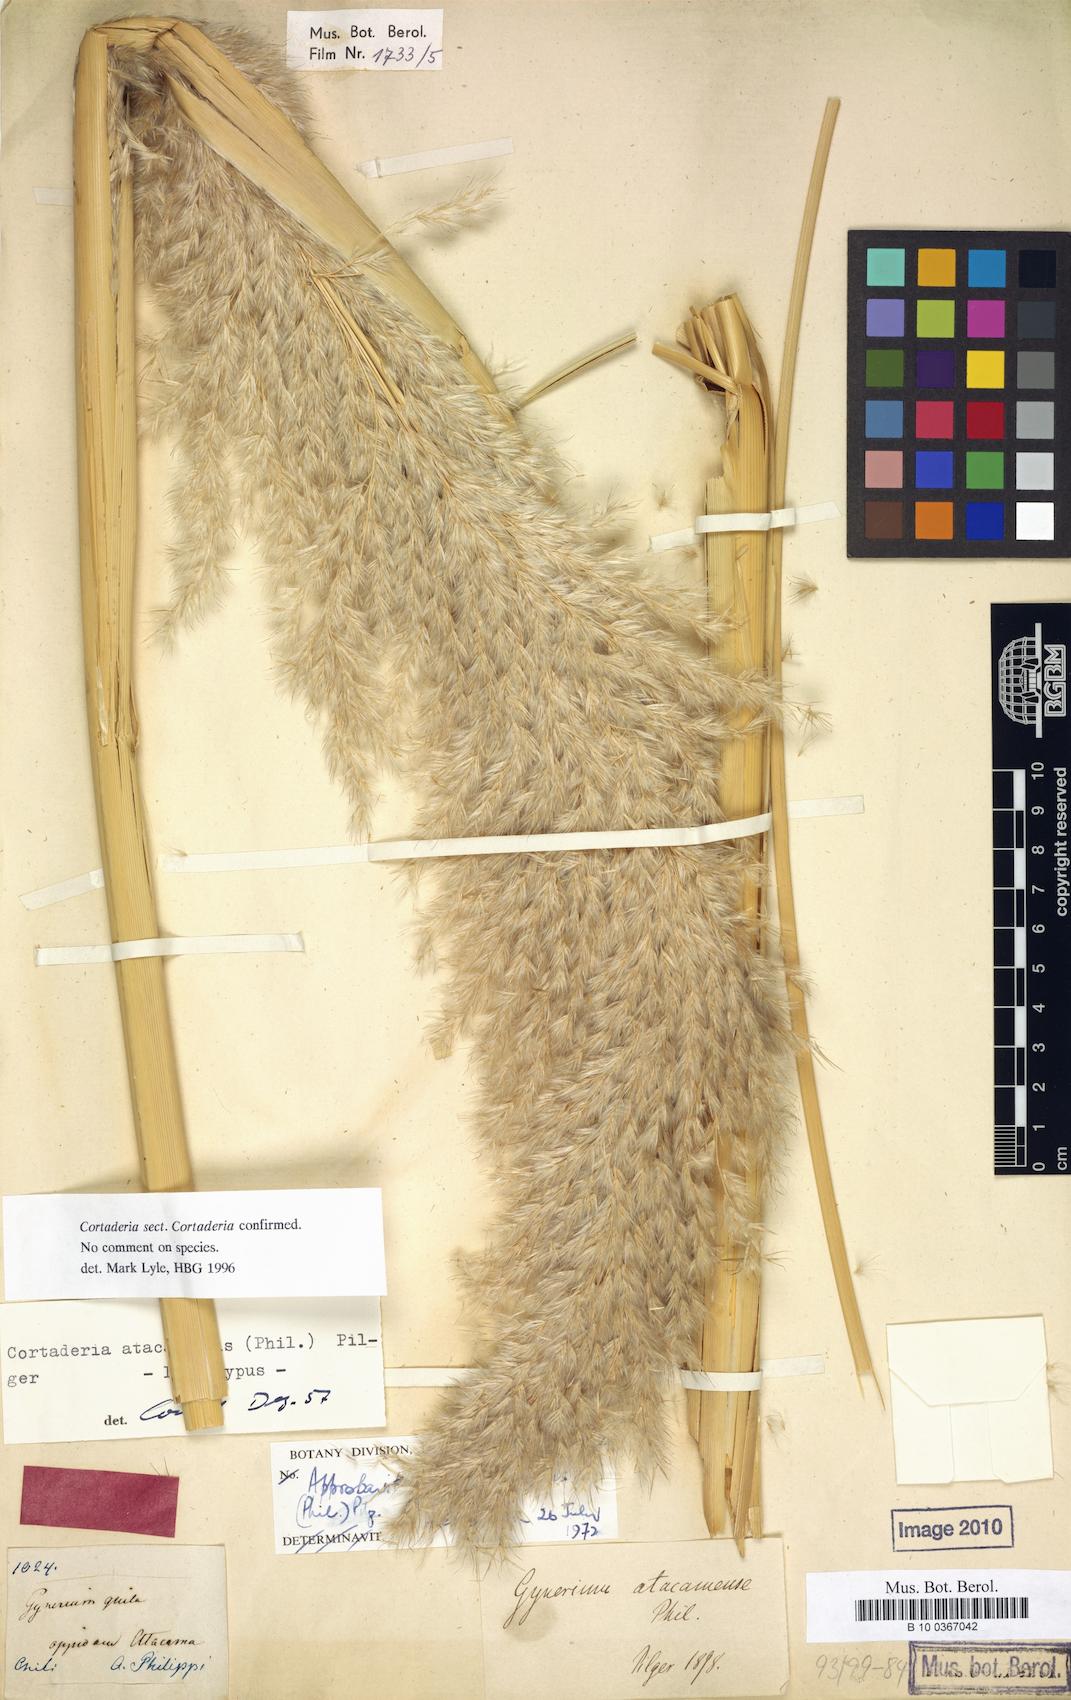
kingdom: Plantae
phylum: Tracheophyta
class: Liliopsida
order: Poales
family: Poaceae
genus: Cortaderia
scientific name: Cortaderia atacamensis
